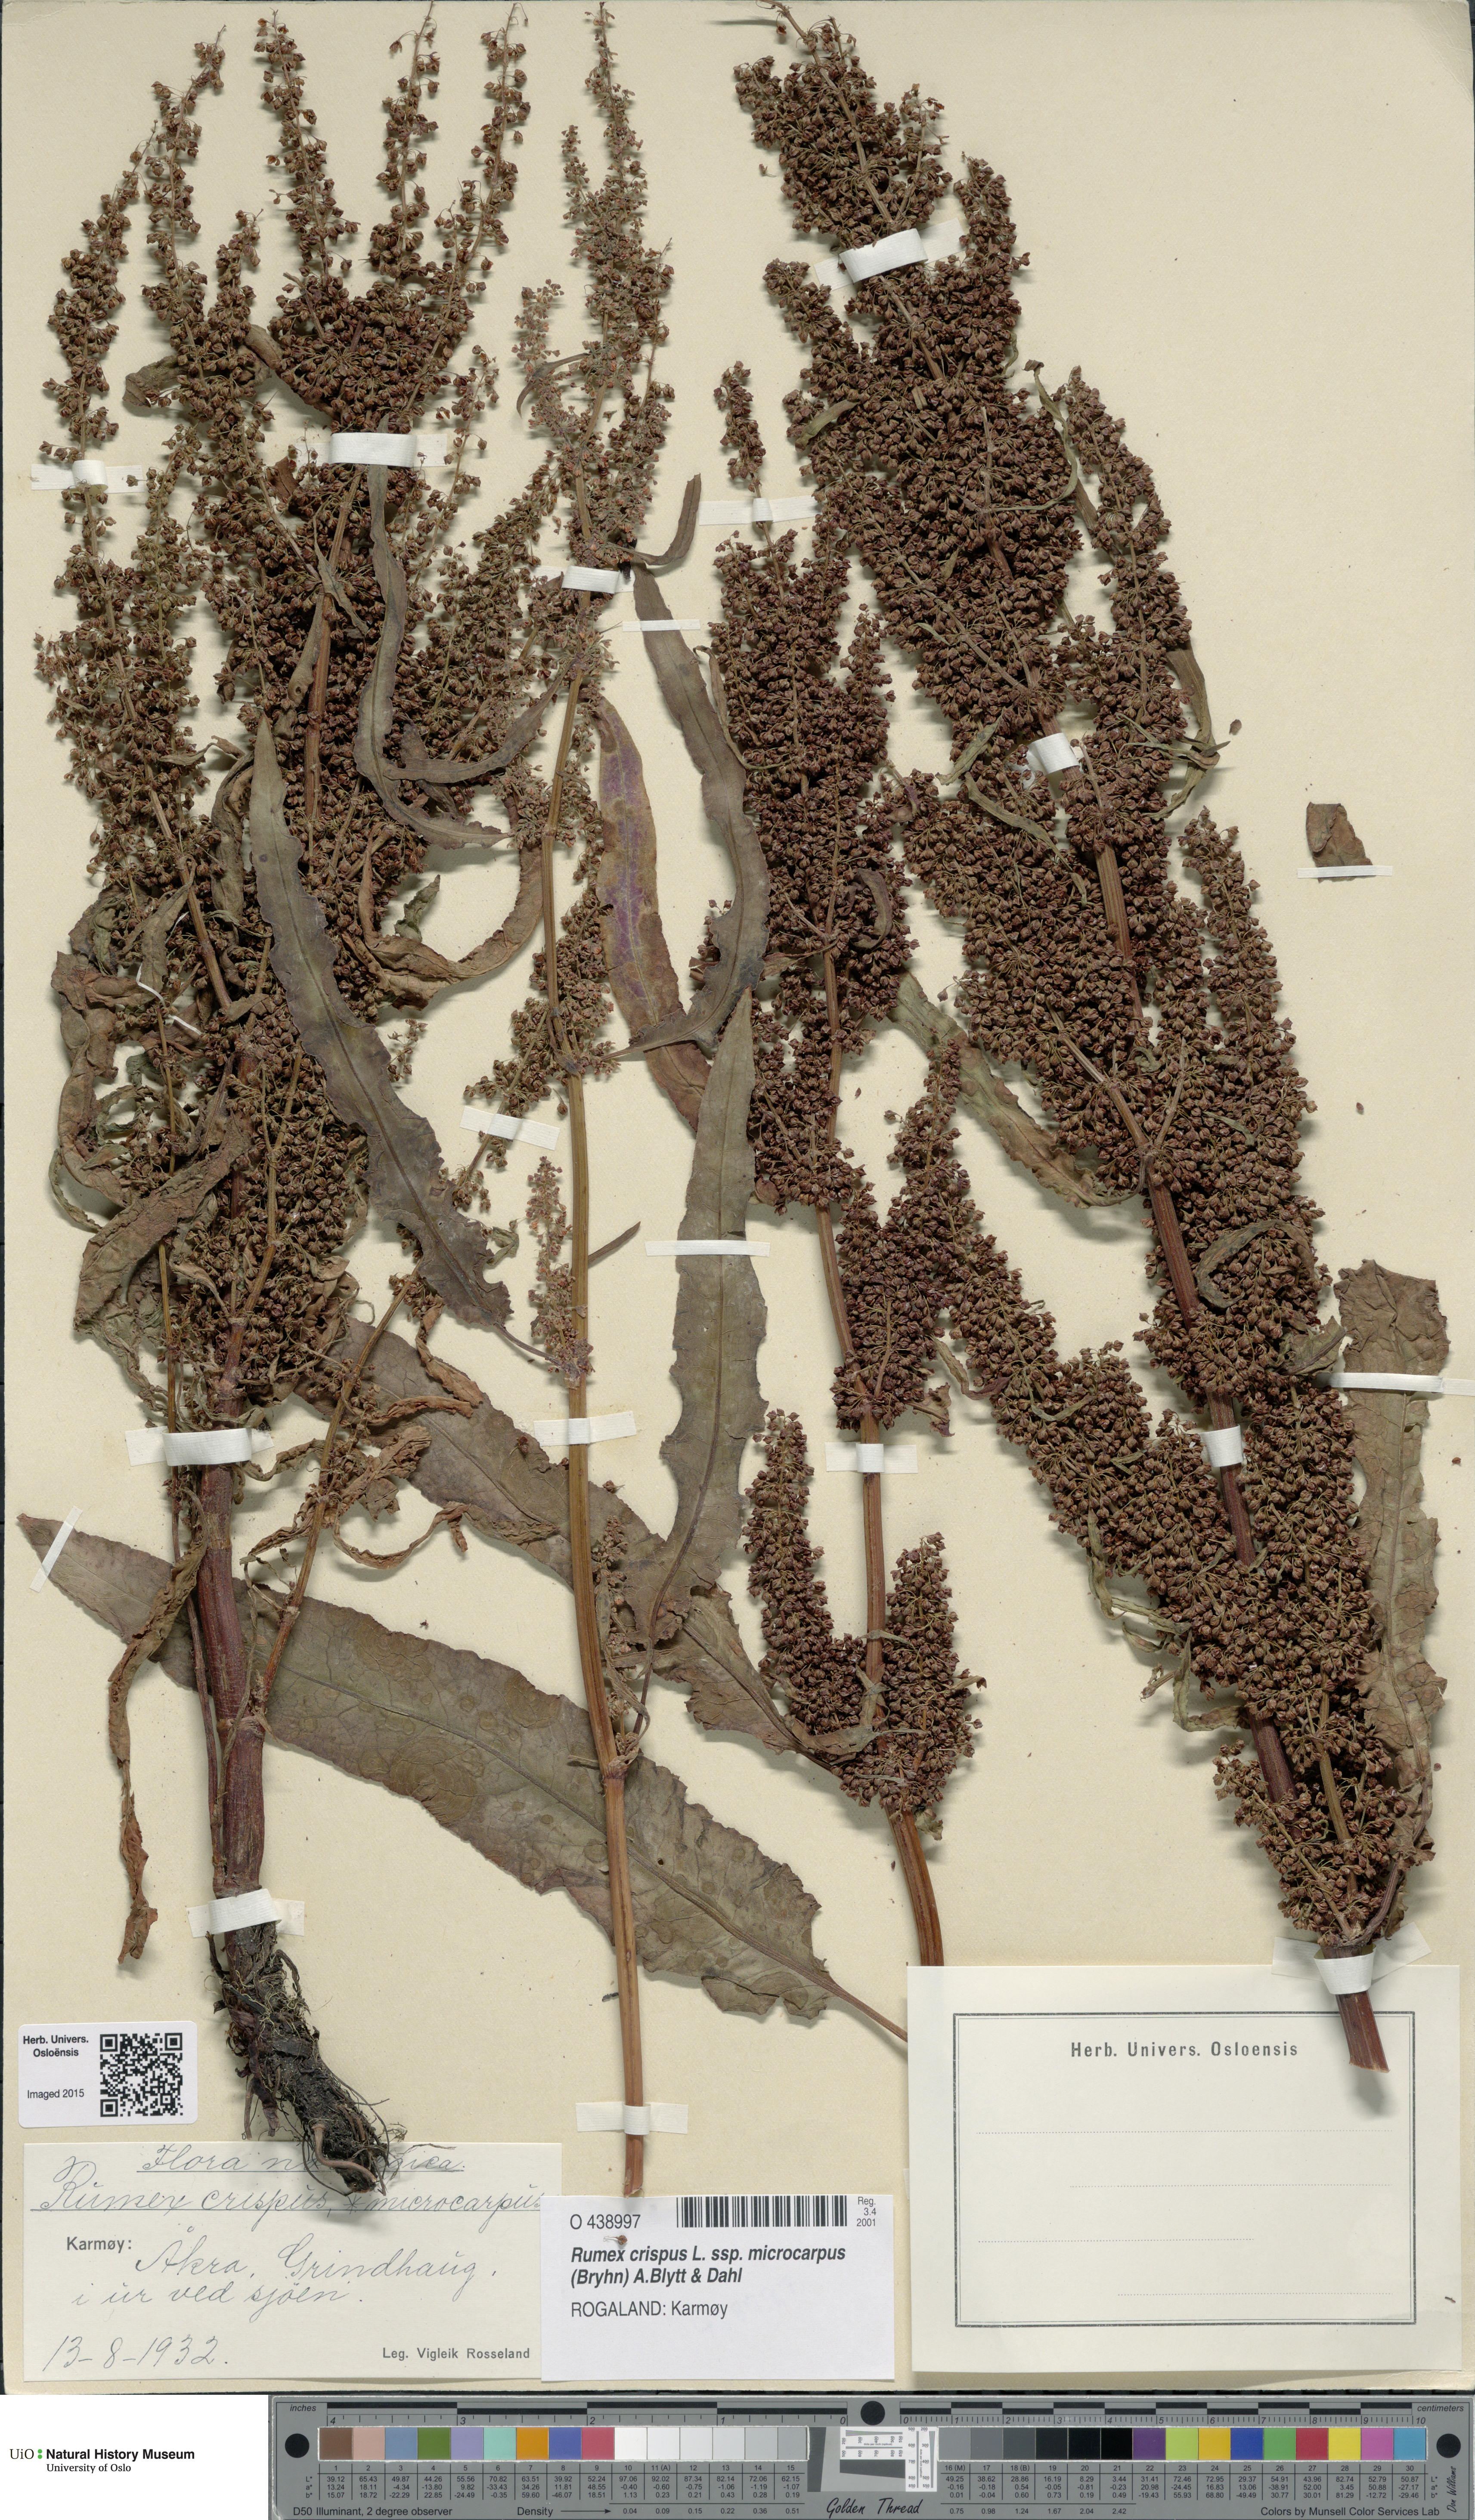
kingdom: Plantae
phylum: Tracheophyta
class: Magnoliopsida
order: Caryophyllales
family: Polygonaceae
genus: Rumex
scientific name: Rumex bryhnii
